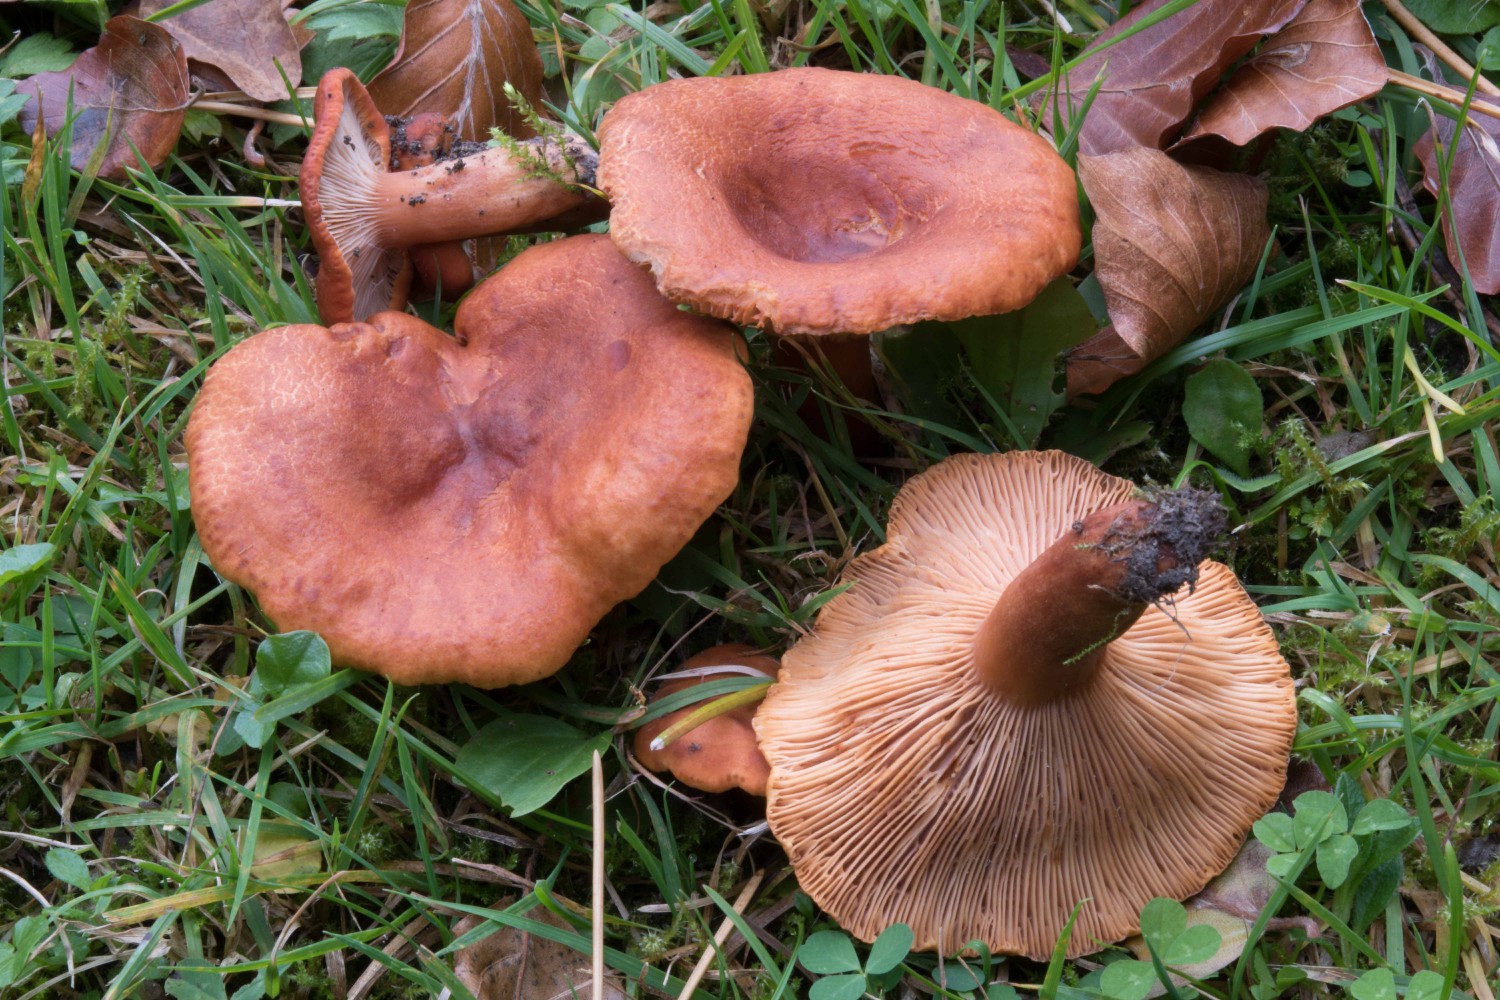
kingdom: Fungi
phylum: Basidiomycota
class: Agaricomycetes
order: Russulales
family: Russulaceae
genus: Lactarius
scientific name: Lactarius fulvissimus
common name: ræve-mælkehat
